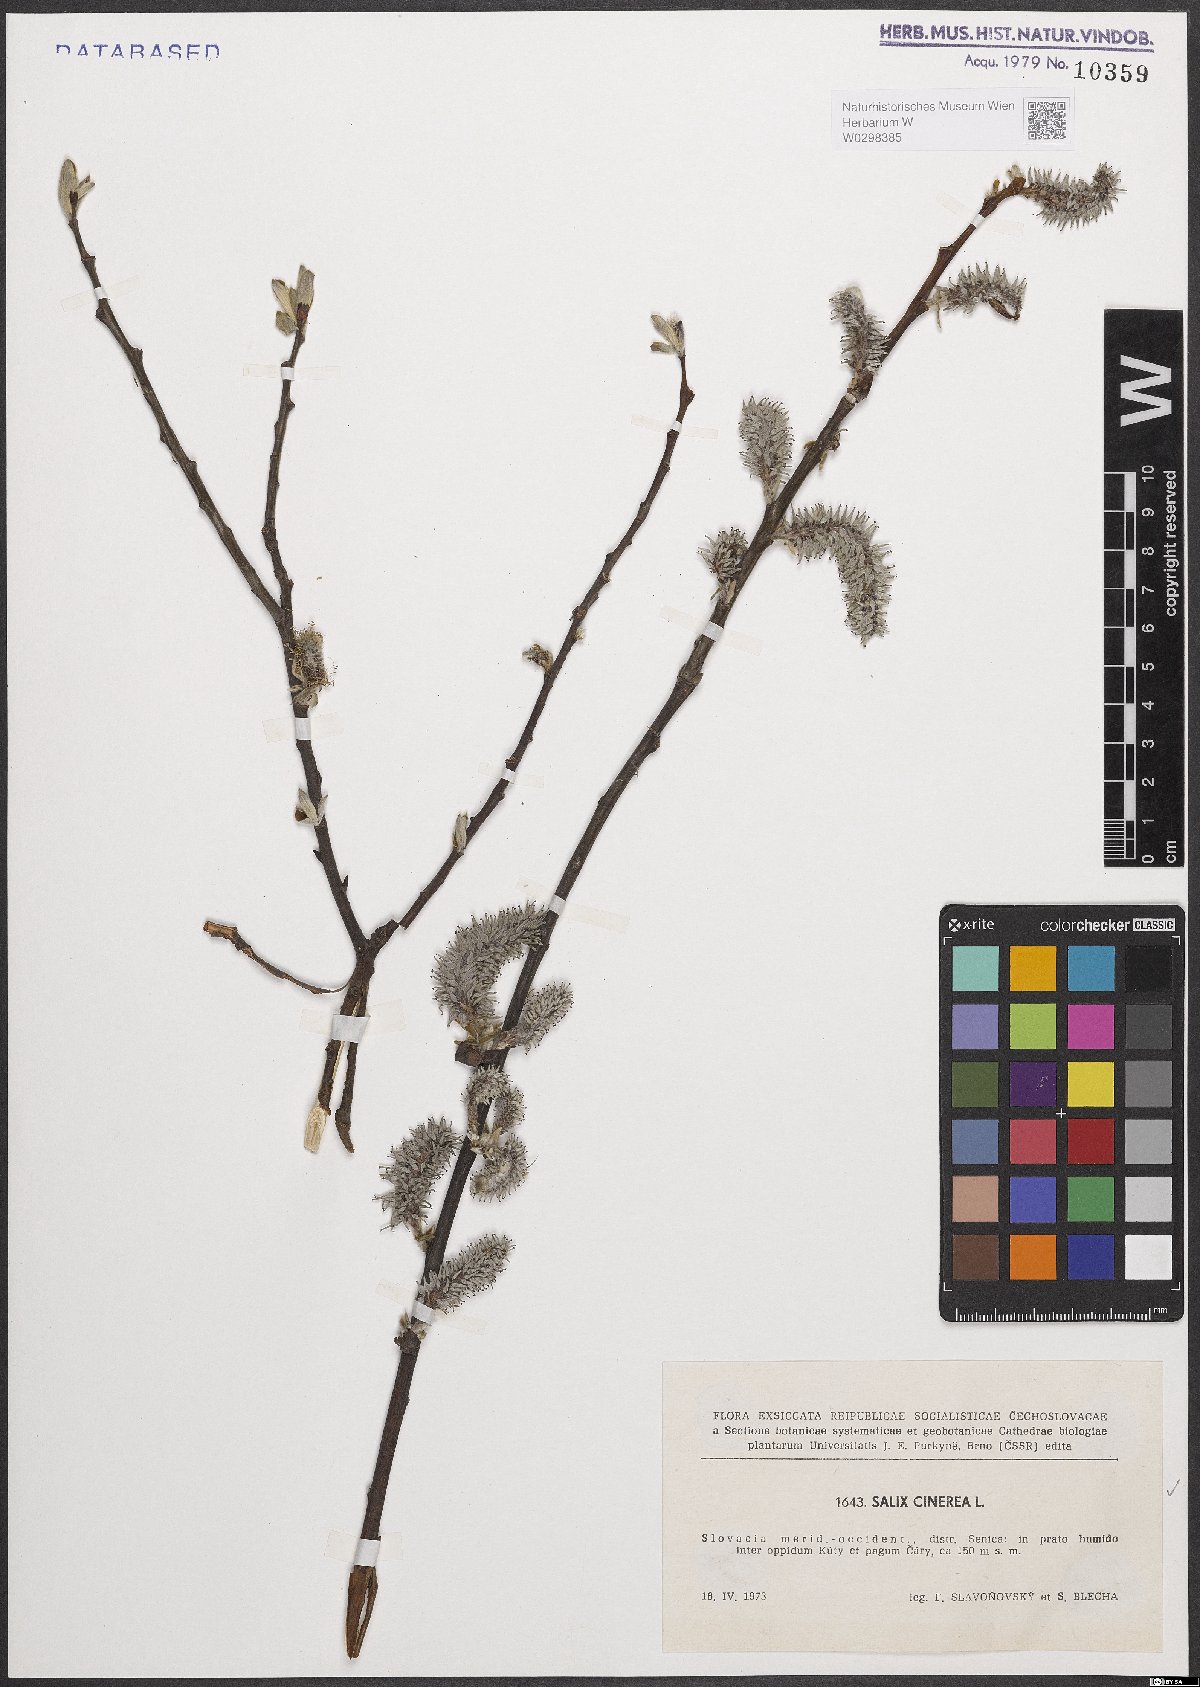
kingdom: Plantae
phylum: Tracheophyta
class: Magnoliopsida
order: Malpighiales
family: Salicaceae
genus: Salix
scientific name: Salix cinerea
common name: Common sallow
